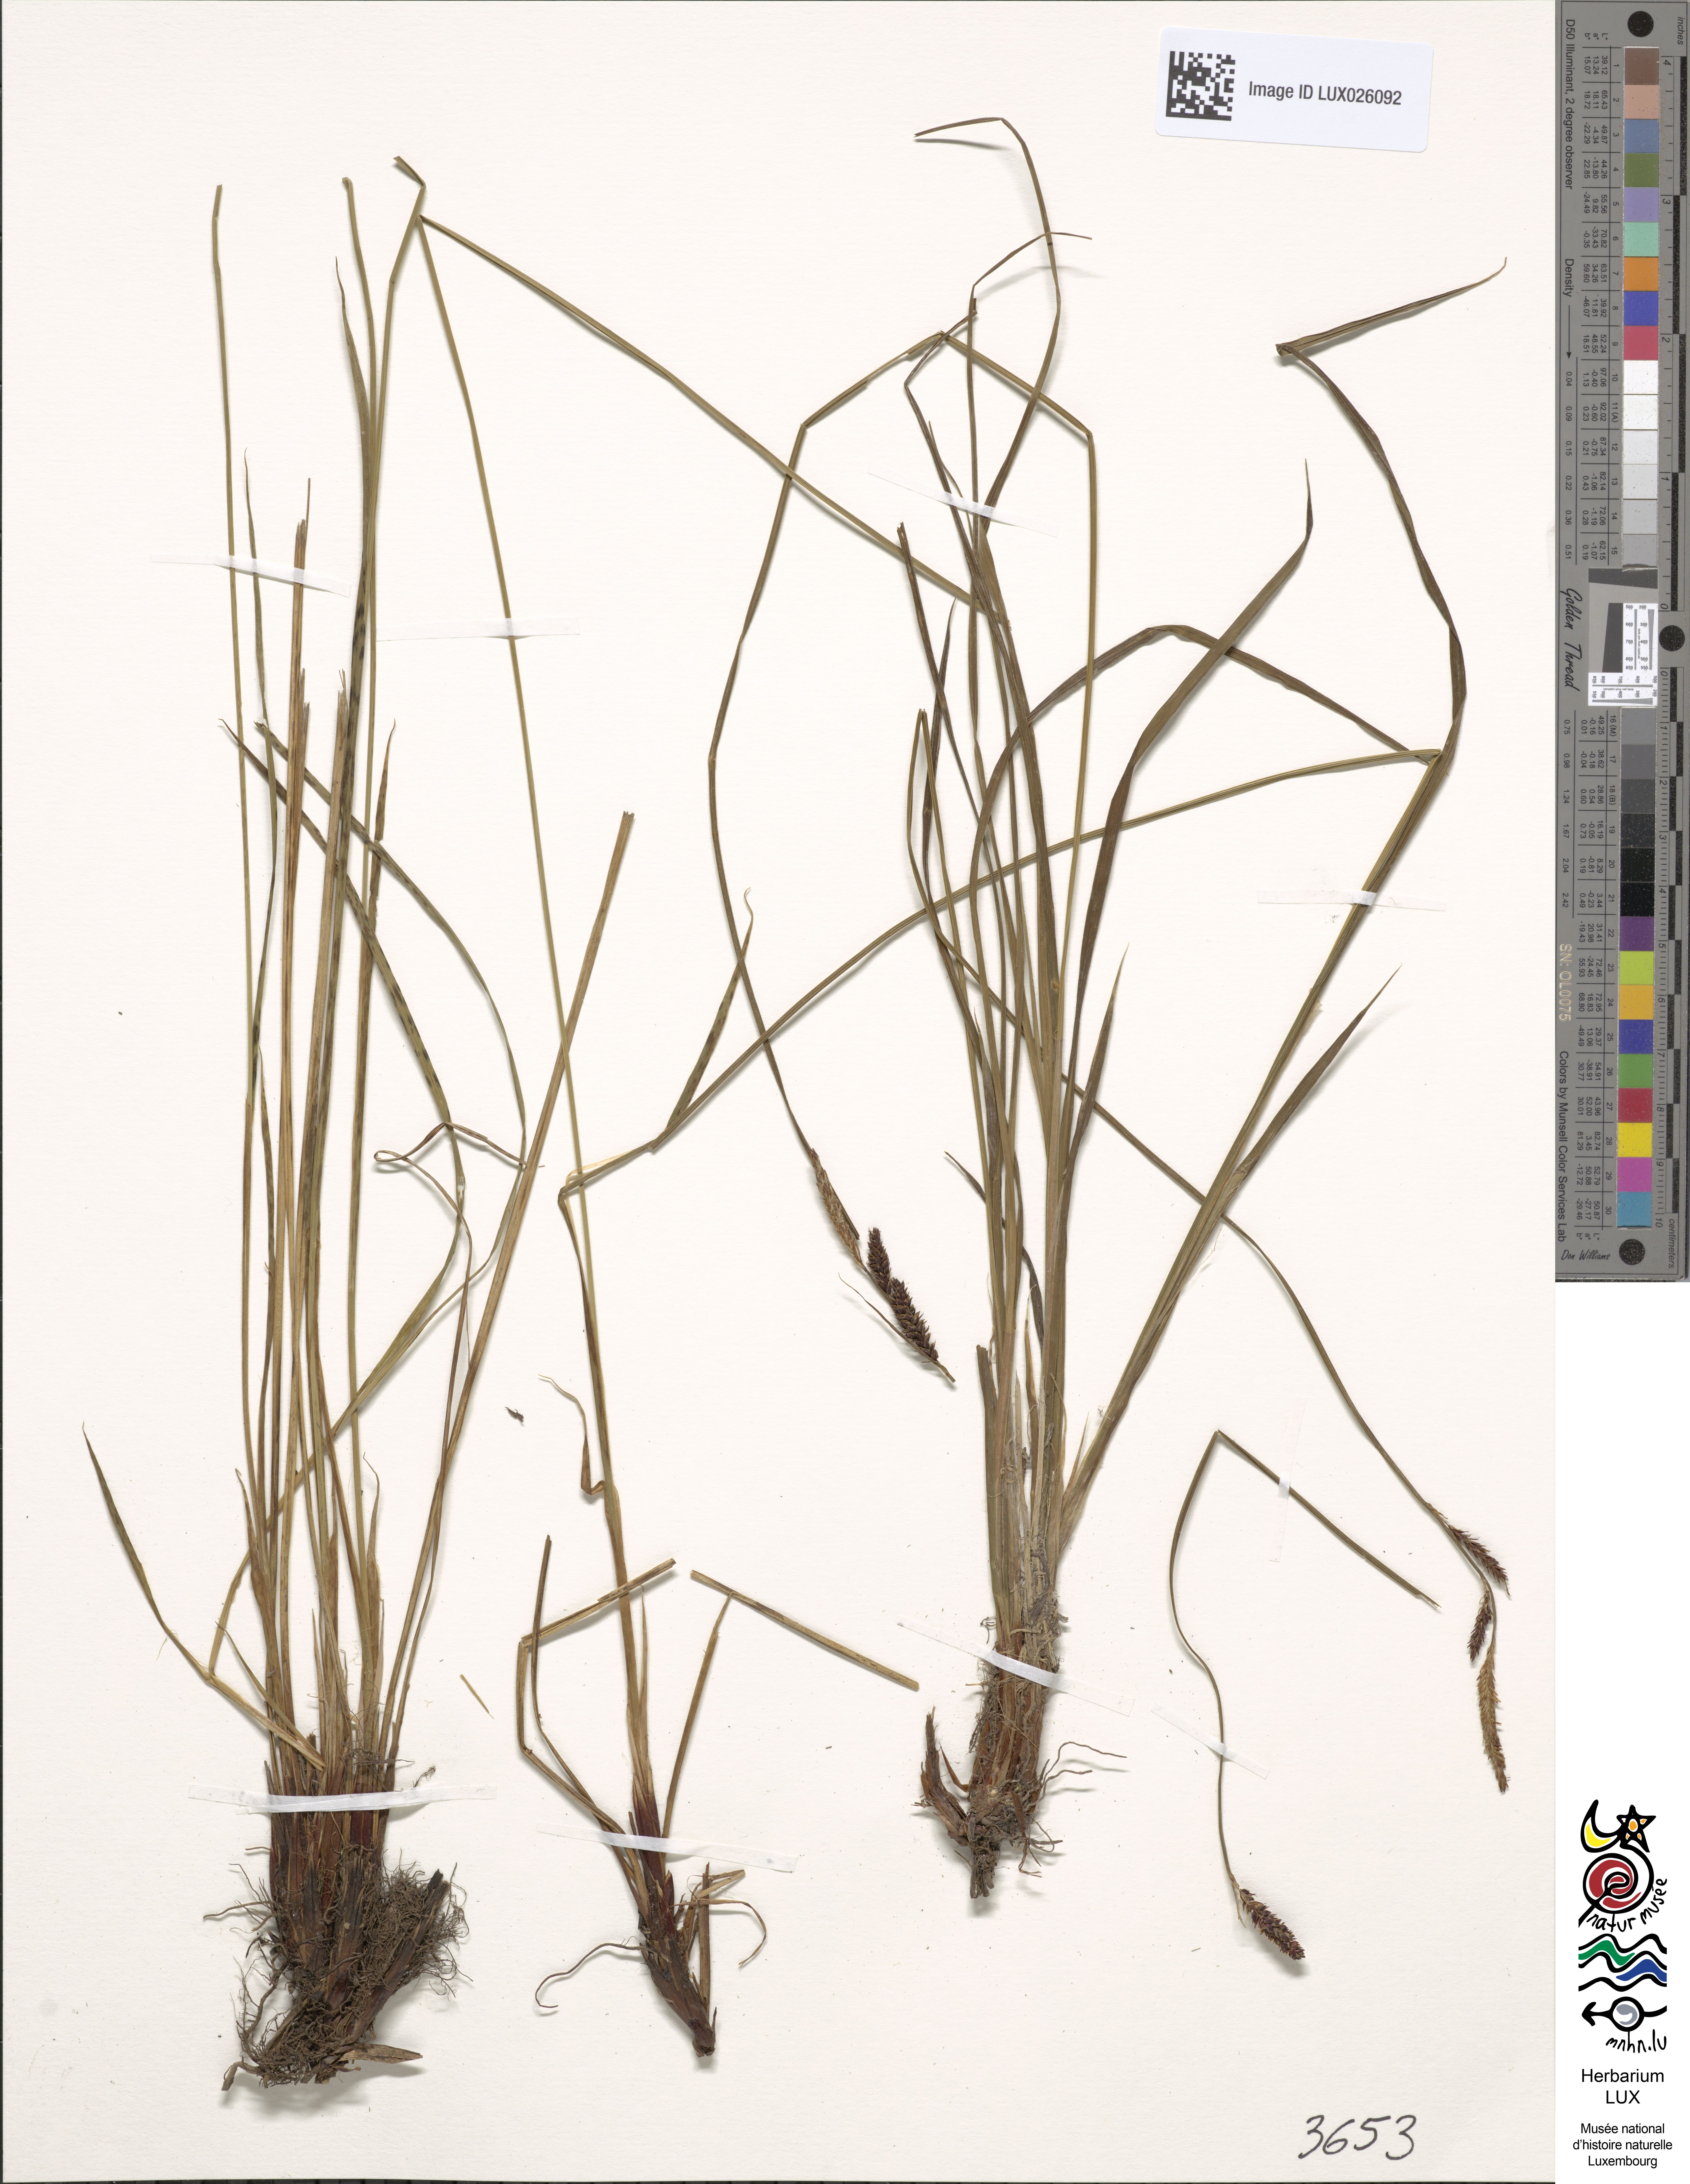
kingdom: Plantae
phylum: Tracheophyta
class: Liliopsida
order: Poales
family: Cyperaceae
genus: Carex
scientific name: Carex cespitosa
